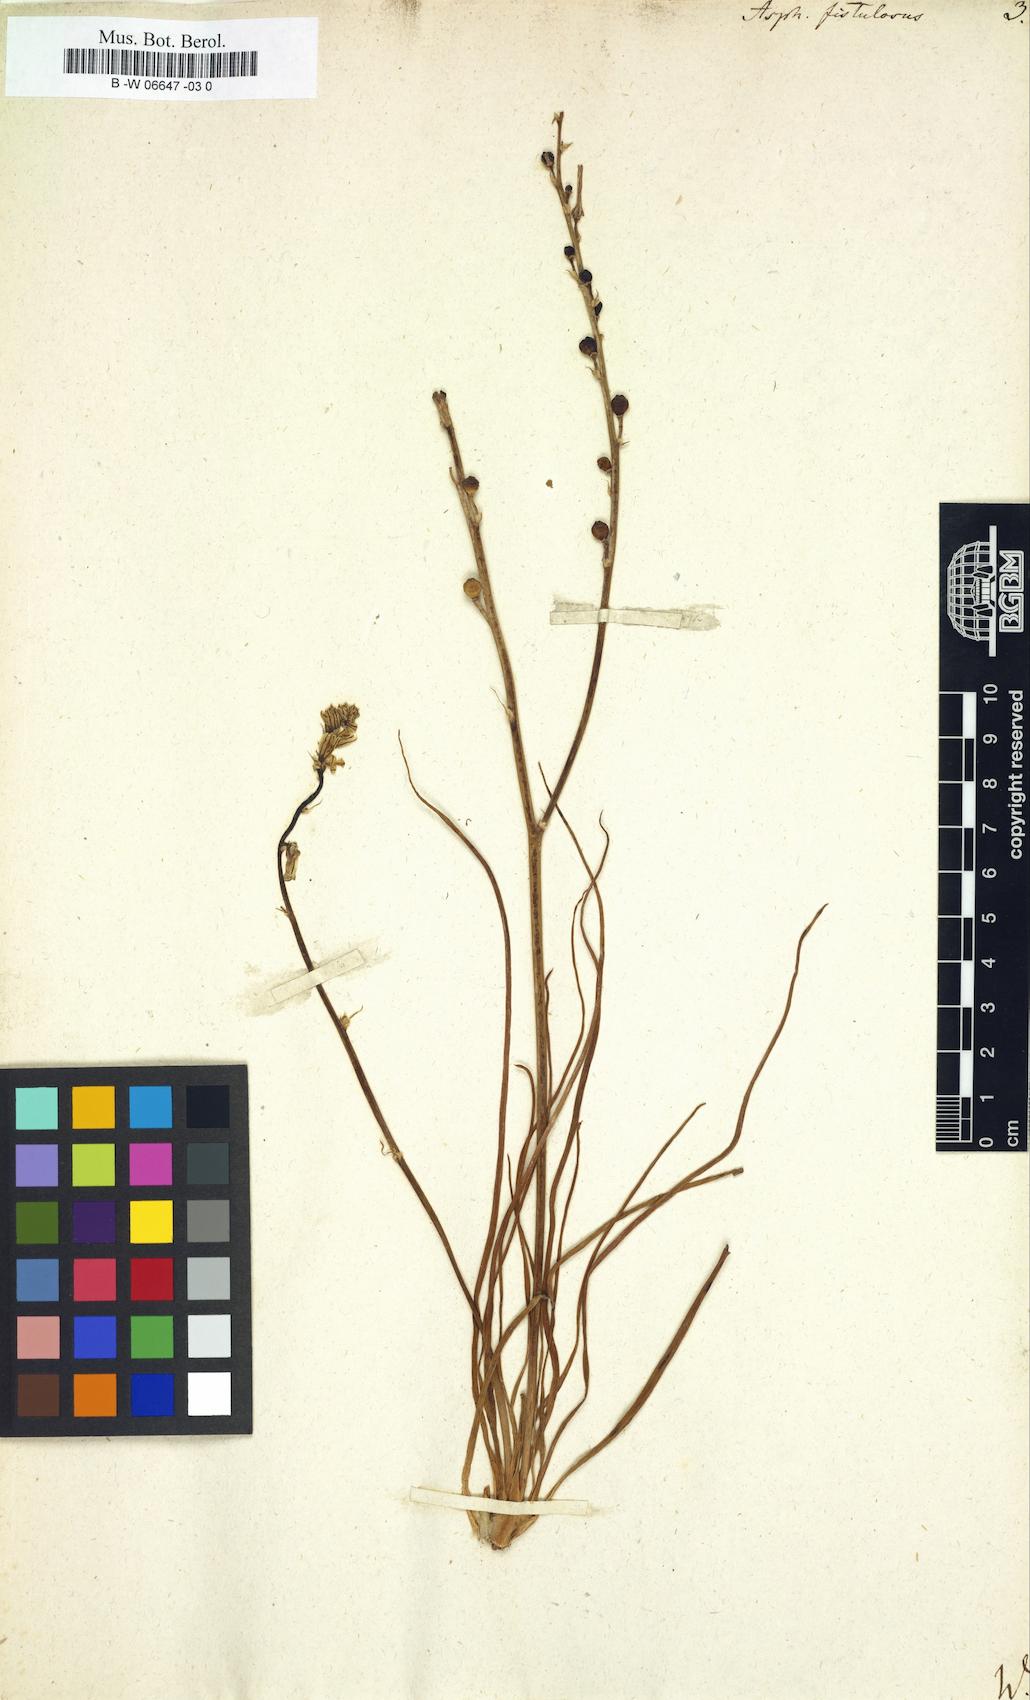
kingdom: Plantae
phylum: Tracheophyta
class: Liliopsida
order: Asparagales
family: Asphodelaceae
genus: Asphodelus
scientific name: Asphodelus fistulosus
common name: Onionweed
